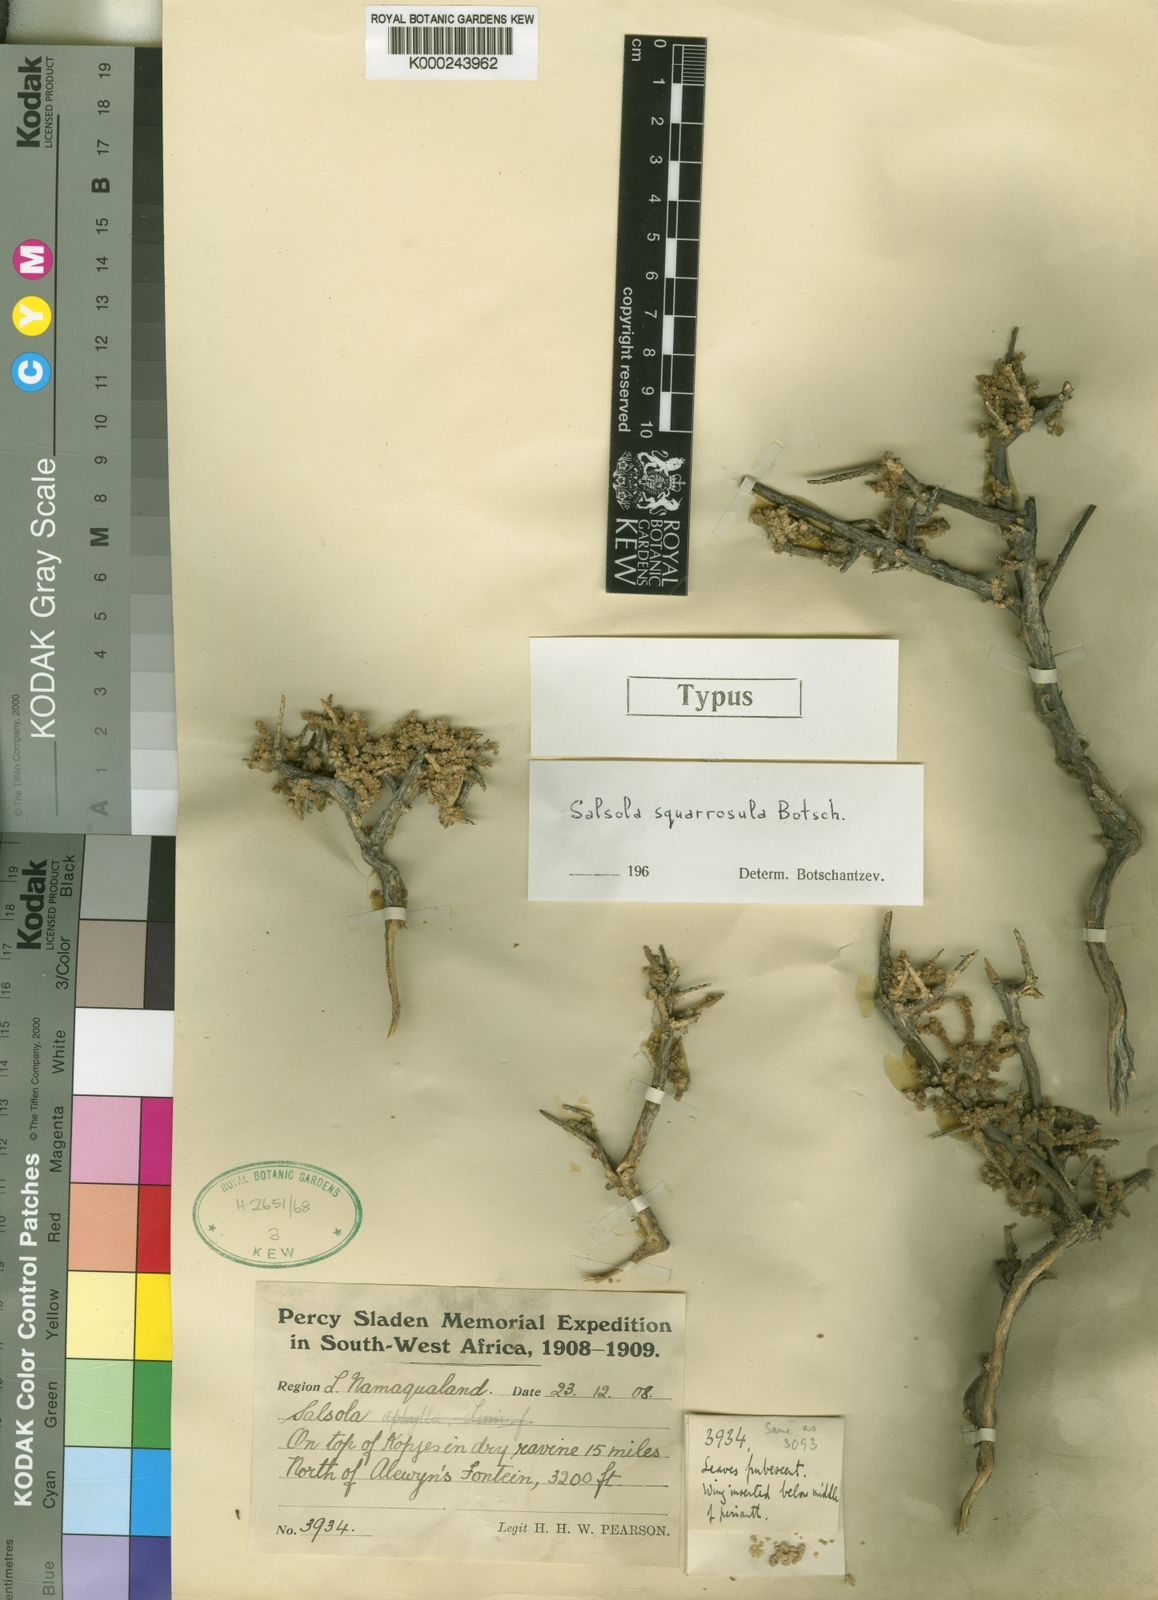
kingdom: Plantae
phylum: Tracheophyta
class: Magnoliopsida
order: Caryophyllales
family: Amaranthaceae
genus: Caroxylon
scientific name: Caroxylon squarrosulum
